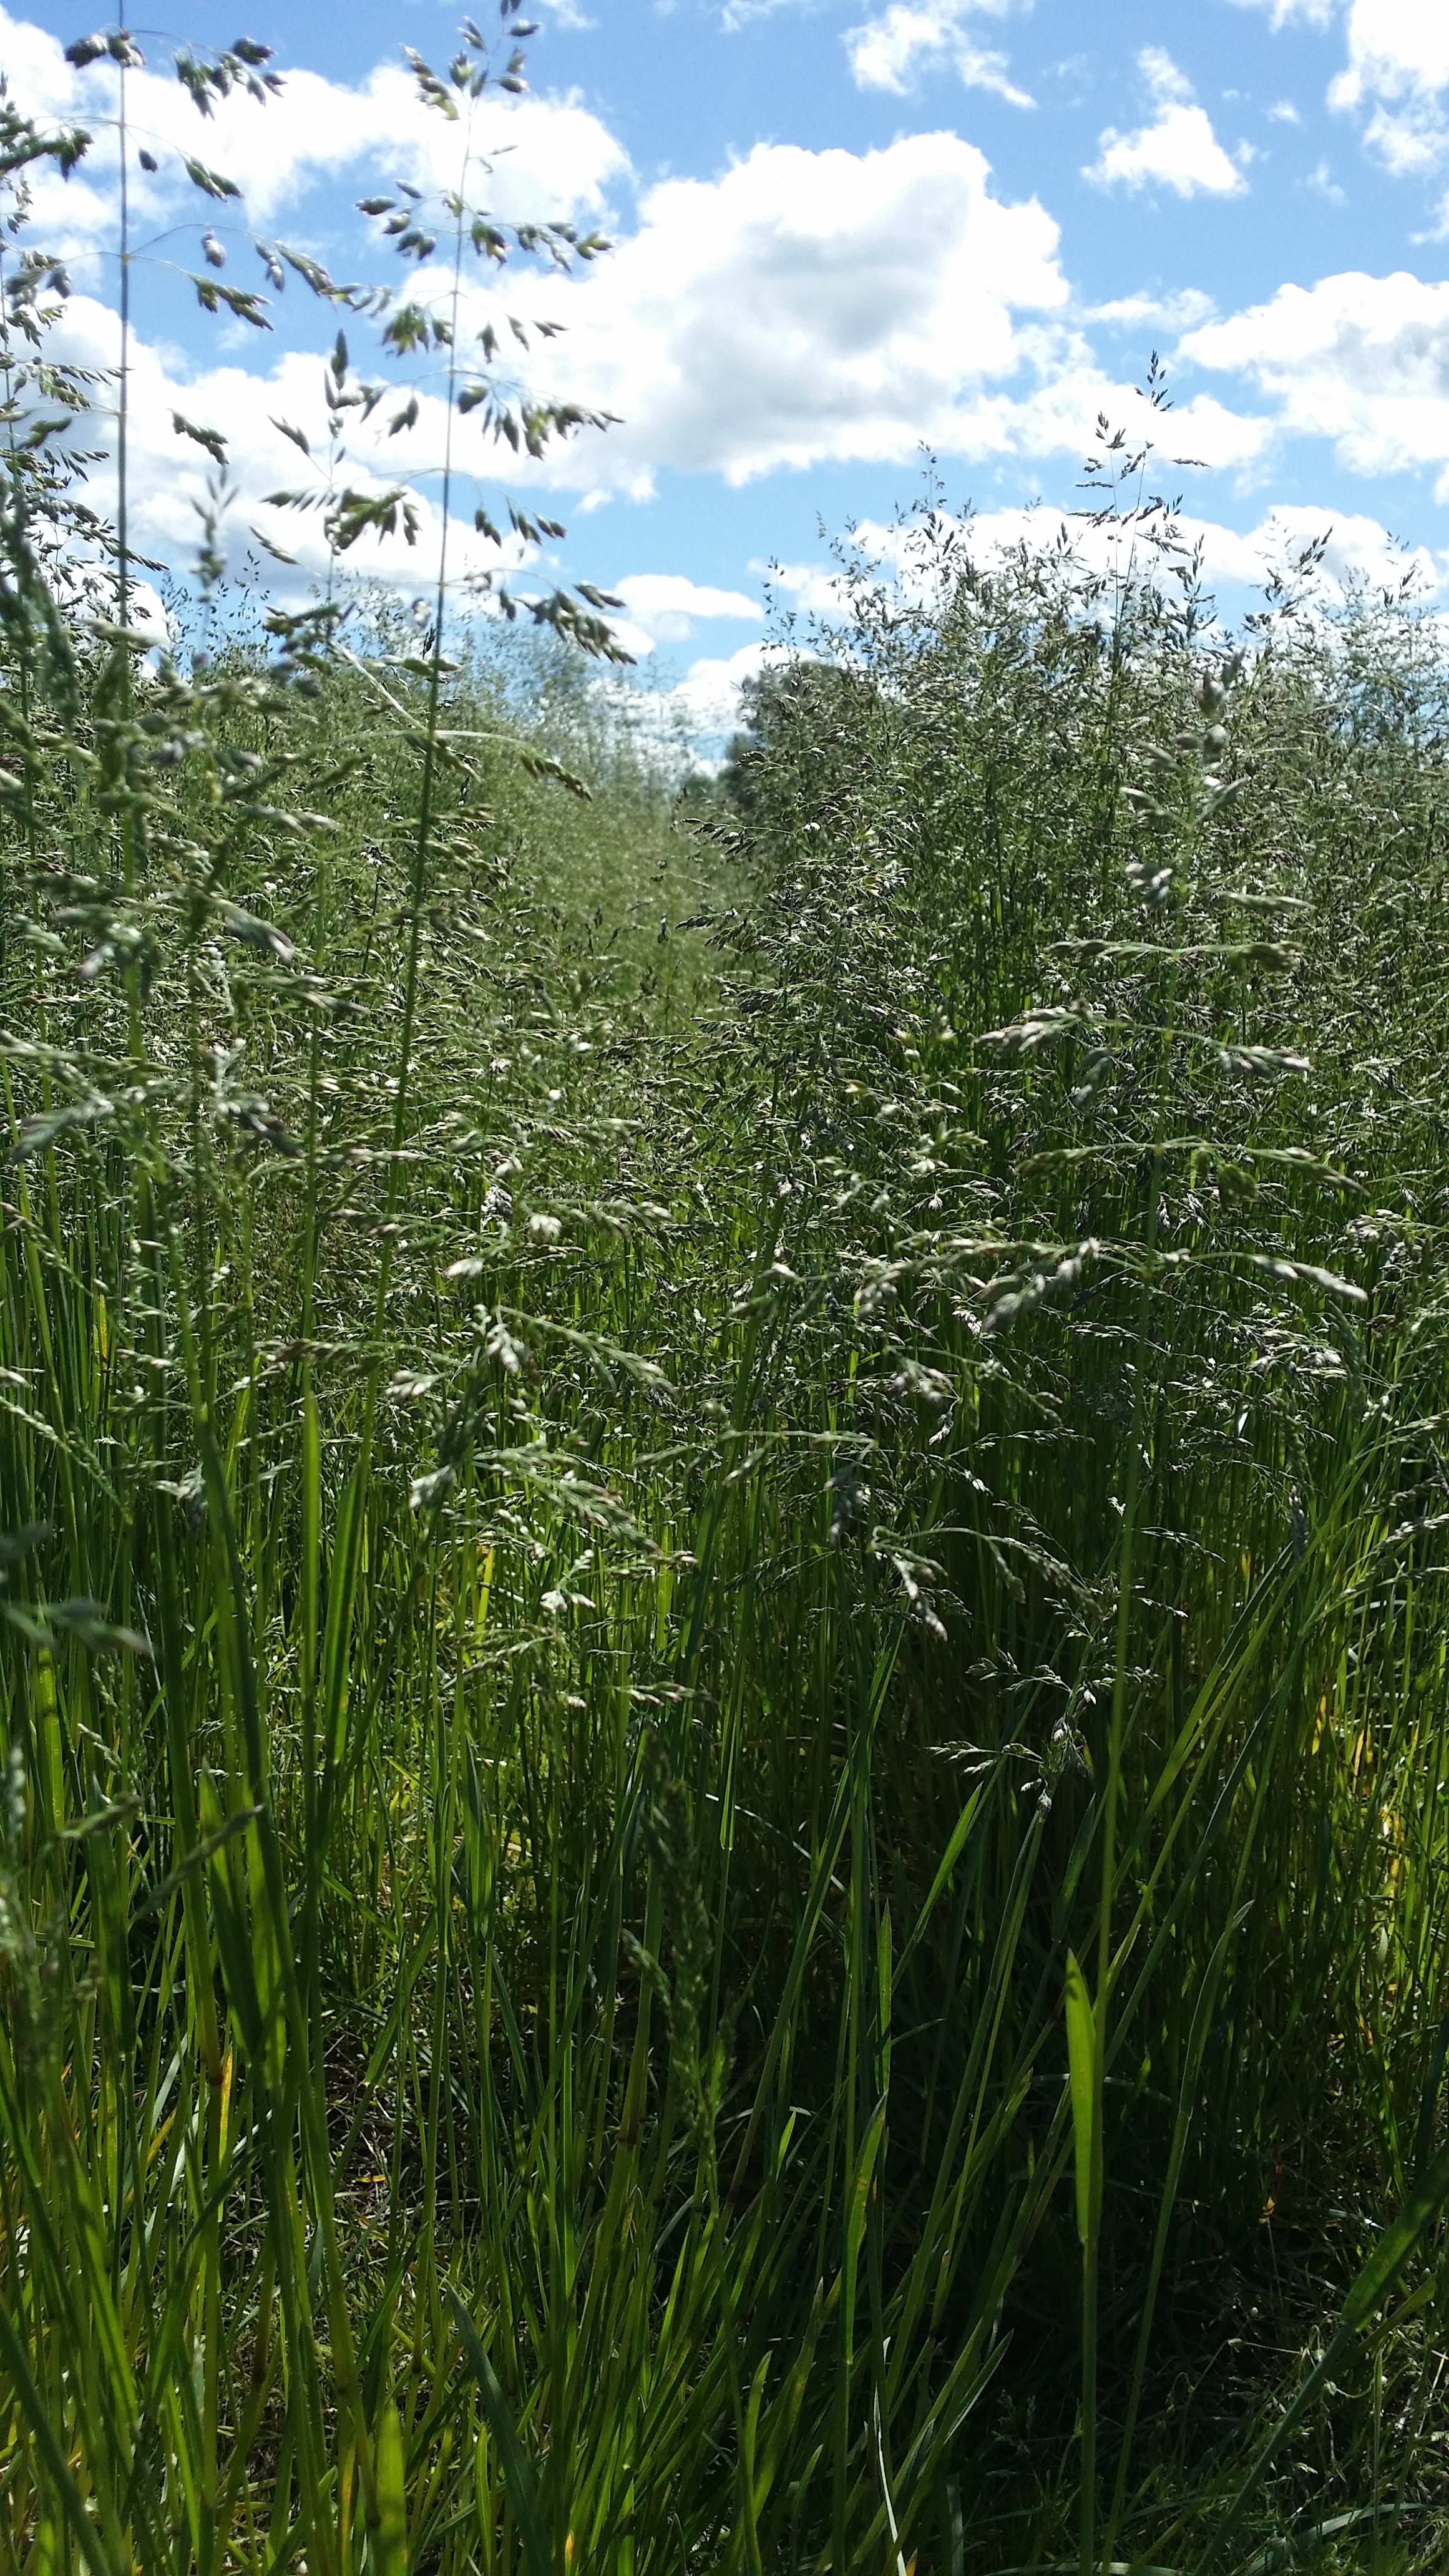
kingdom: Plantae
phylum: Tracheophyta
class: Liliopsida
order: Poales
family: Poaceae
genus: Poa
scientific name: Poa pratensis
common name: Kentucky bluegrass
